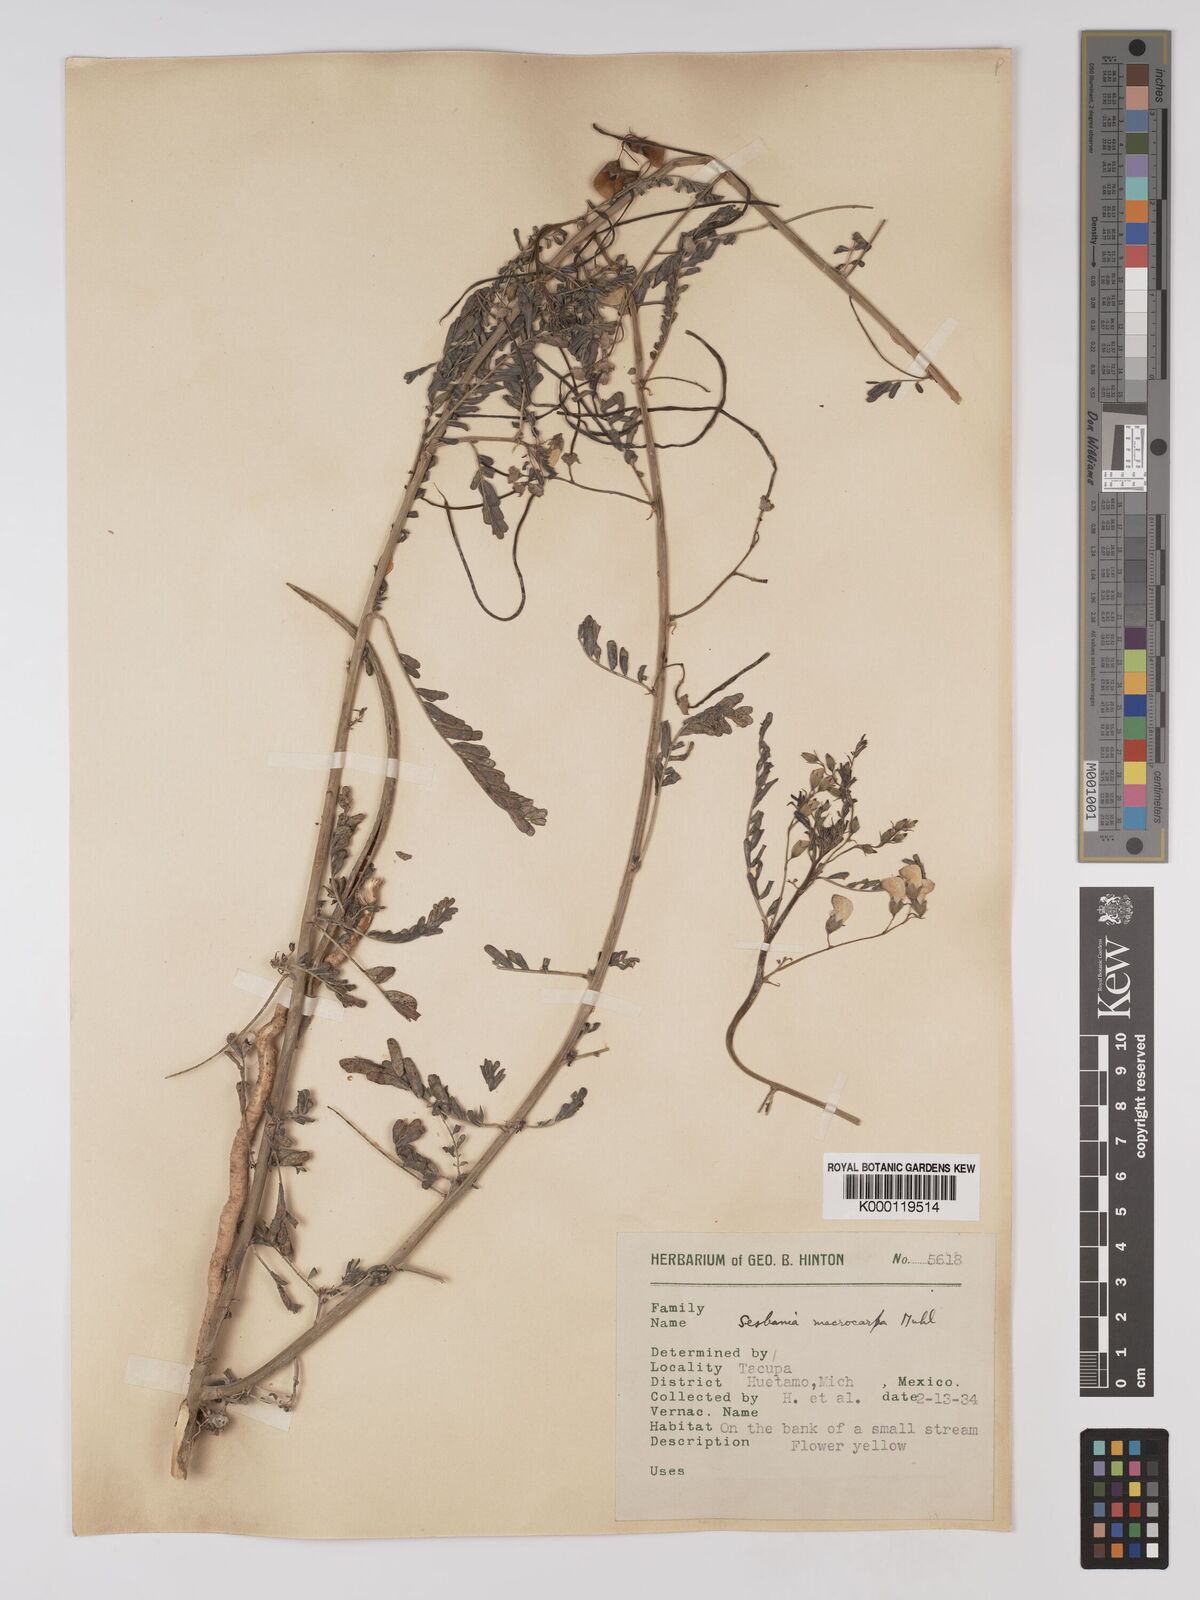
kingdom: Plantae
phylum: Tracheophyta
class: Magnoliopsida
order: Fabales
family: Fabaceae
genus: Sesbania
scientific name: Sesbania vesicaria
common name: Bagpod
